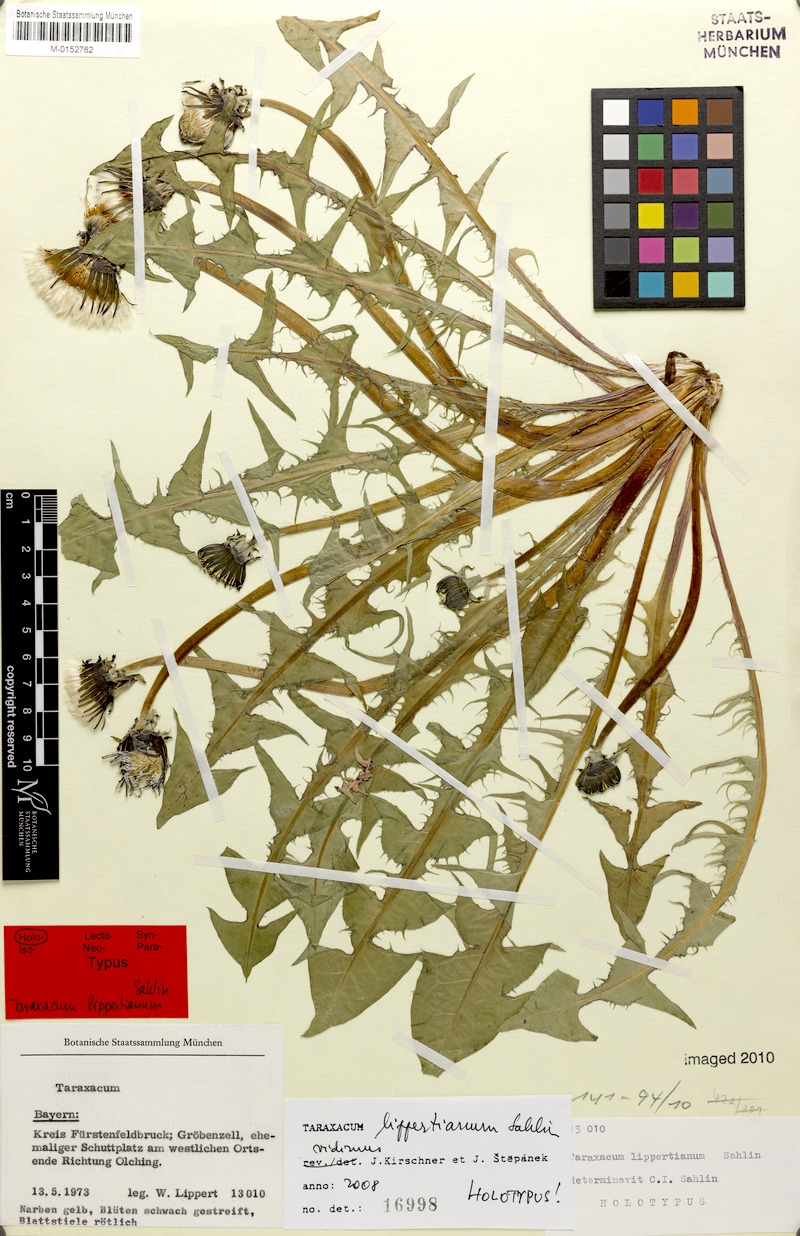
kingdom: Plantae
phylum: Tracheophyta
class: Magnoliopsida
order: Asterales
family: Asteraceae
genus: Taraxacum
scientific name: Taraxacum lippertianum
